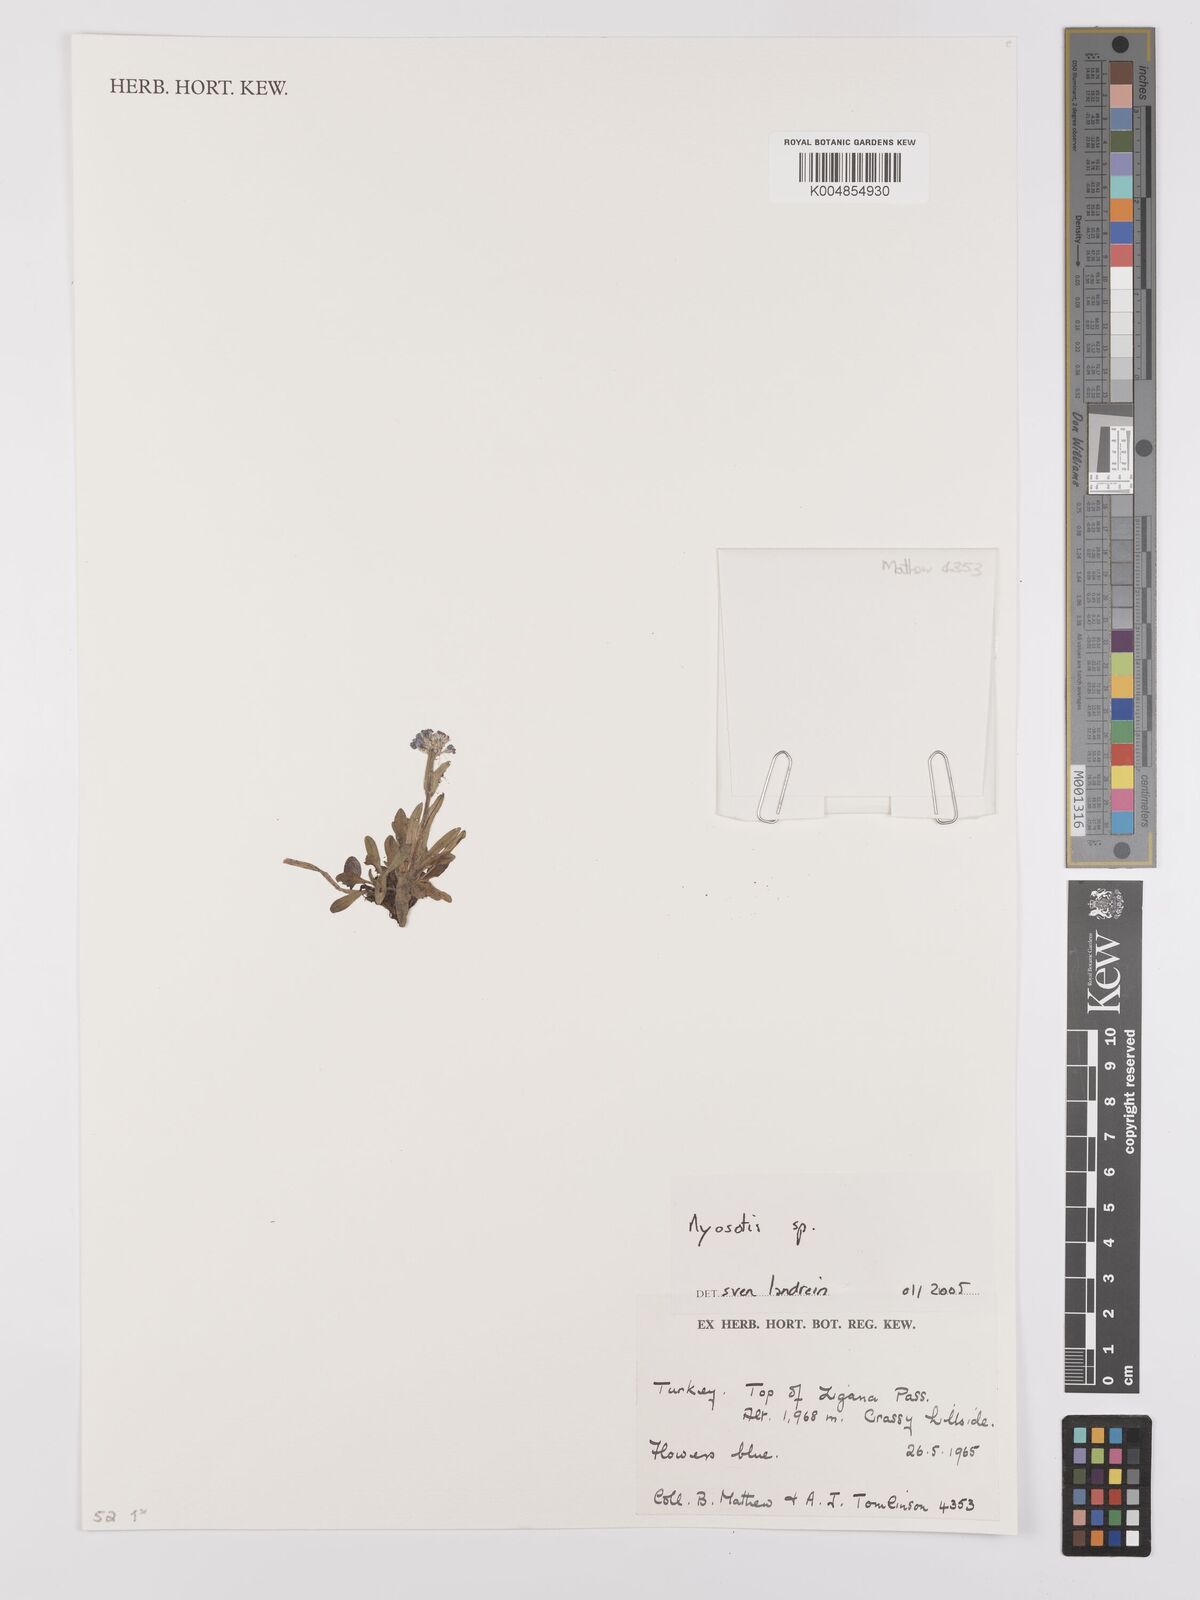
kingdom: Plantae
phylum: Tracheophyta
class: Magnoliopsida
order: Boraginales
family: Boraginaceae
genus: Myosotis
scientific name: Myosotis
